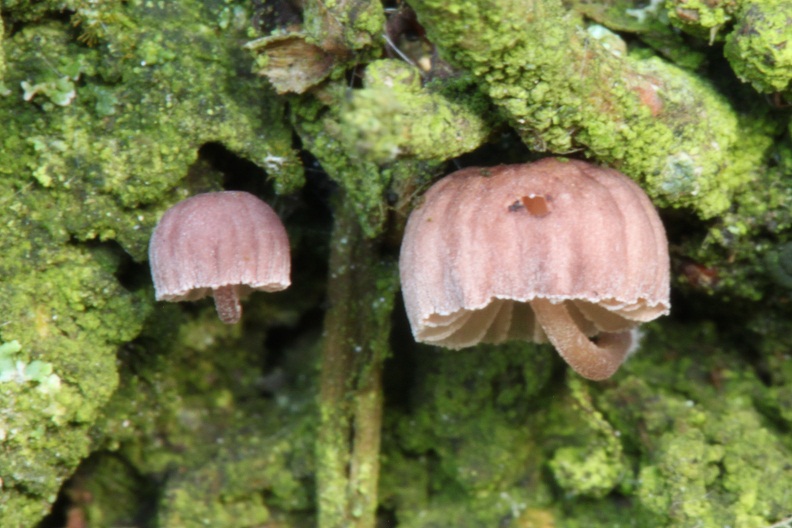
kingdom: Fungi
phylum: Basidiomycota
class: Agaricomycetes
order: Agaricales
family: Mycenaceae
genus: Mycena
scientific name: Mycena meliigena
